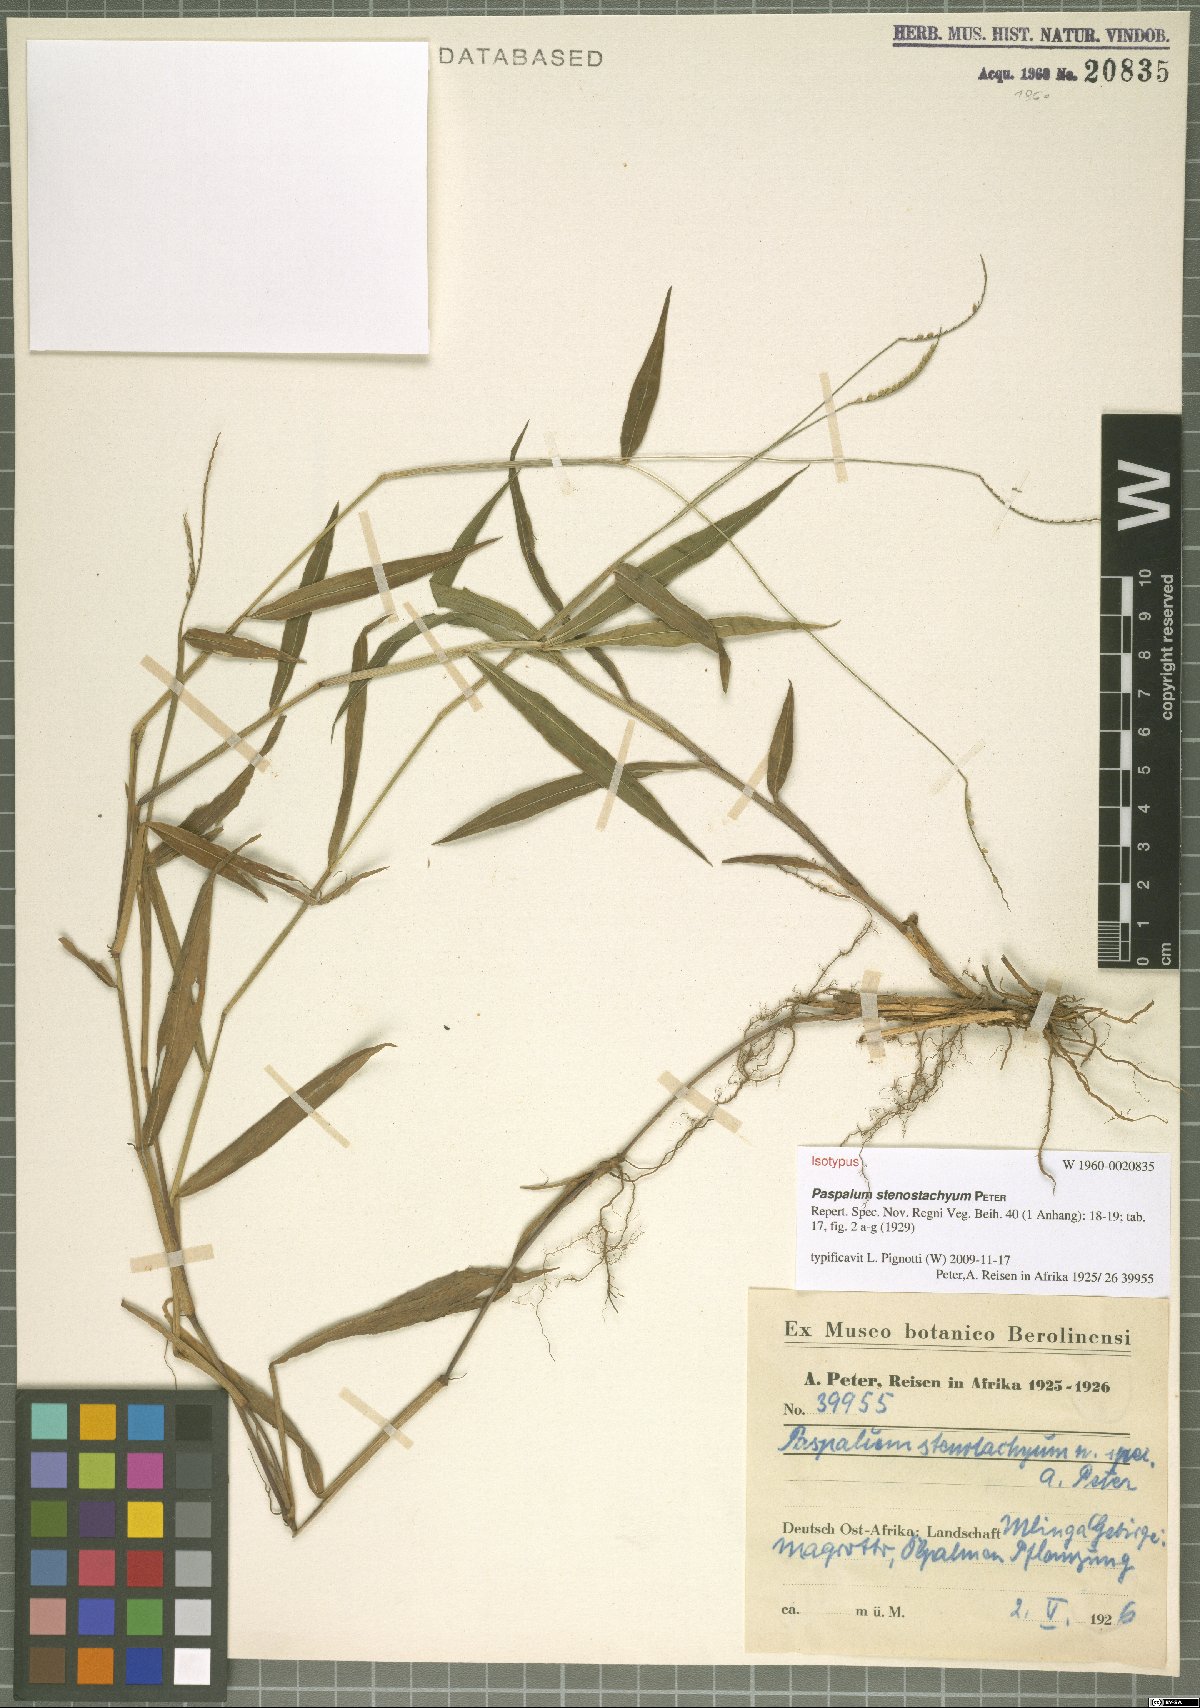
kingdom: Plantae
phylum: Tracheophyta
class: Liliopsida
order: Poales
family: Poaceae
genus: Eriochloa
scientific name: Eriochloa grandiflora
